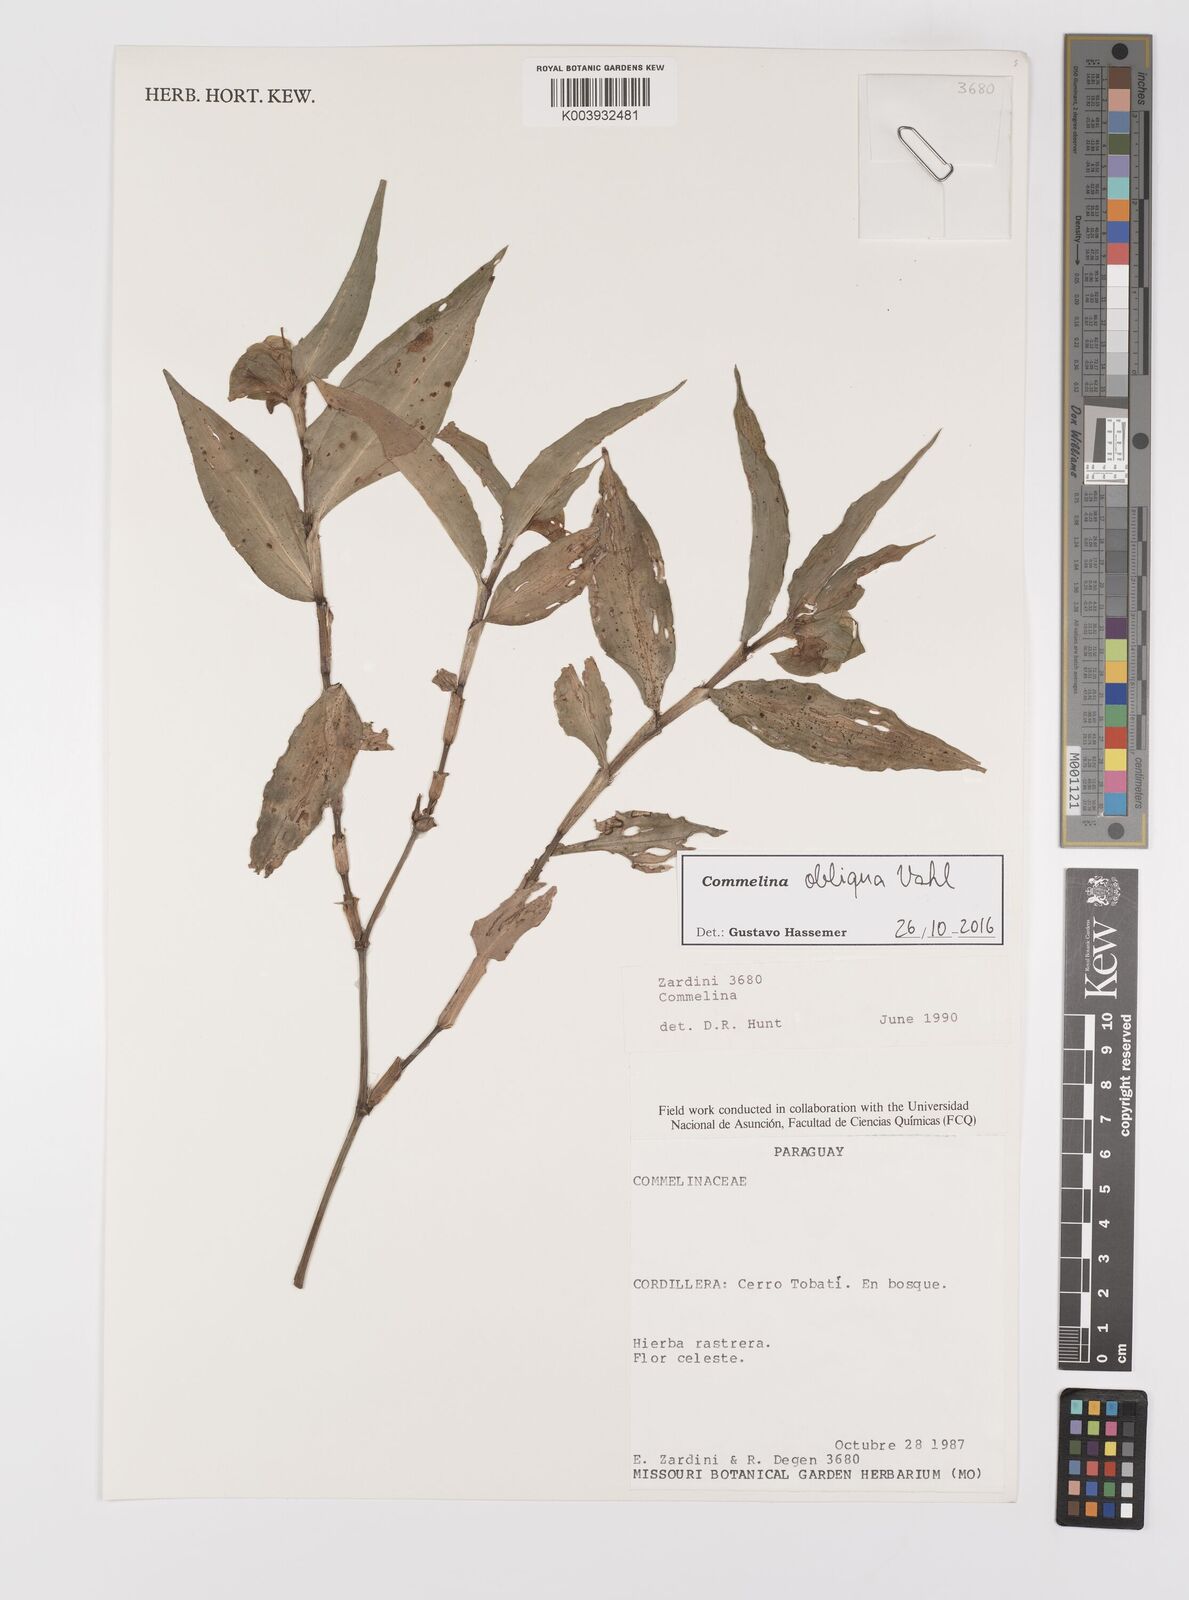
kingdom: Plantae
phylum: Tracheophyta
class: Liliopsida
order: Commelinales
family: Commelinaceae
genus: Commelina
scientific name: Commelina obliqua
